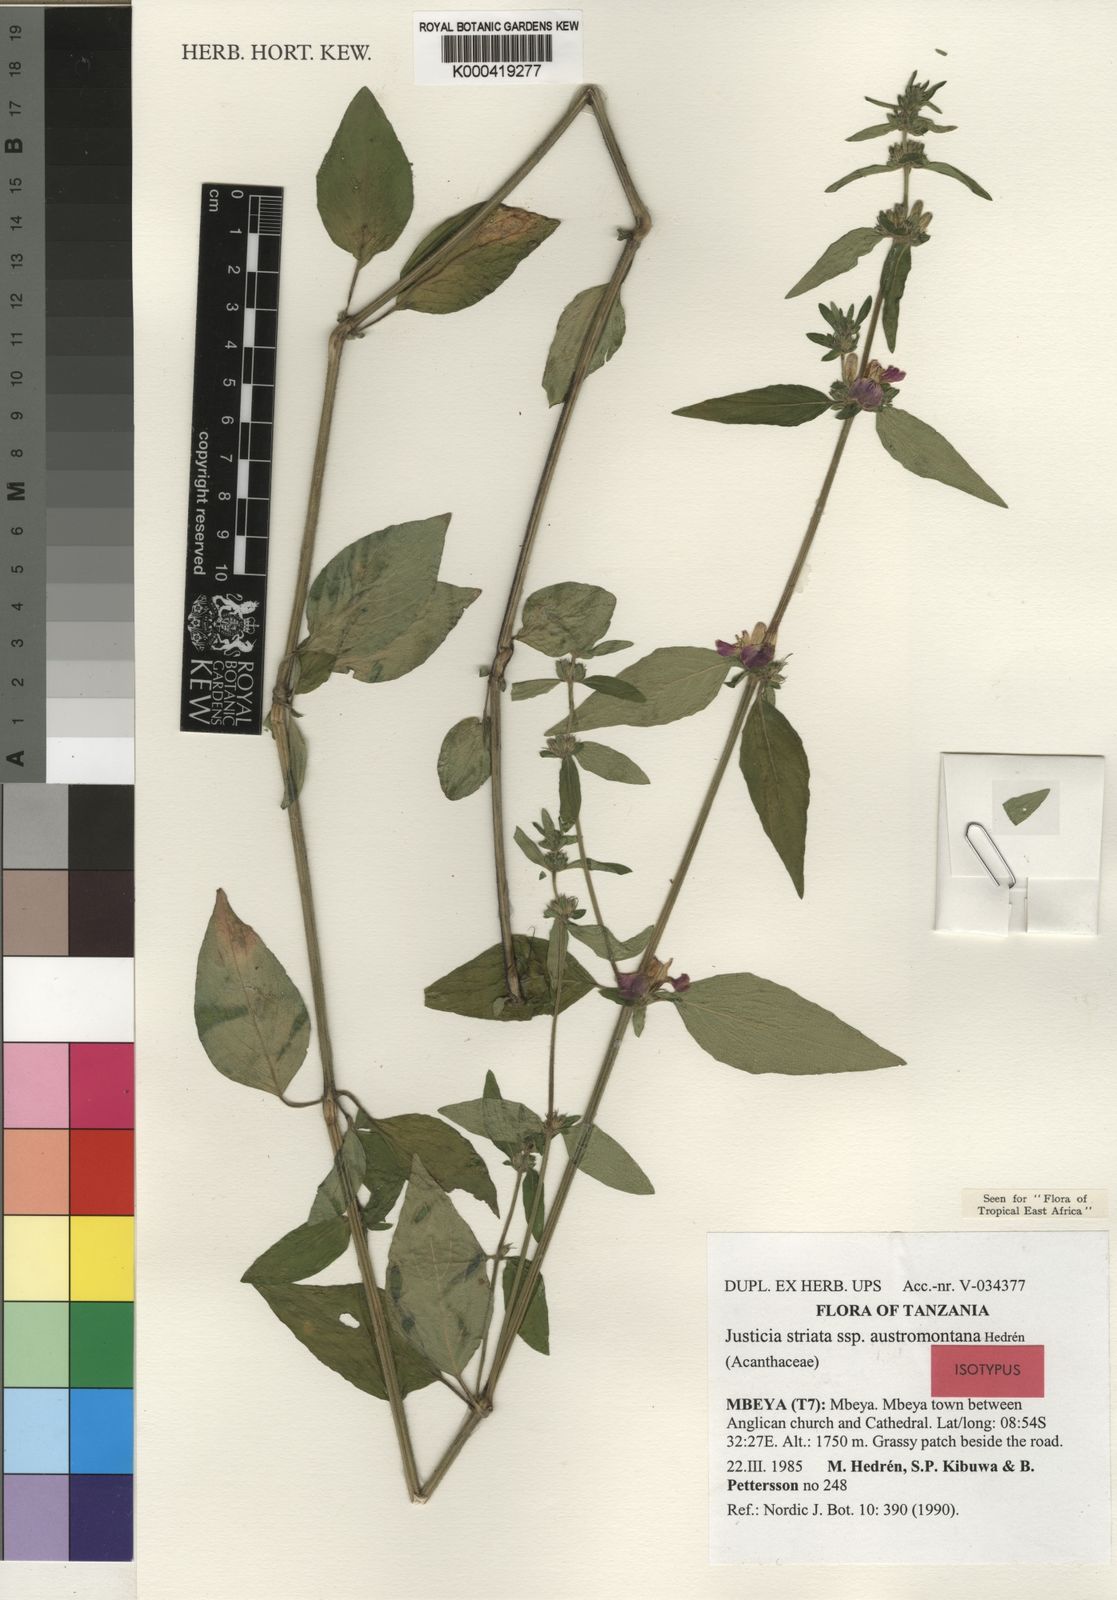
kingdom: Plantae
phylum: Tracheophyta
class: Magnoliopsida
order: Lamiales
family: Acanthaceae
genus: Justicia
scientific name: Justicia striata
